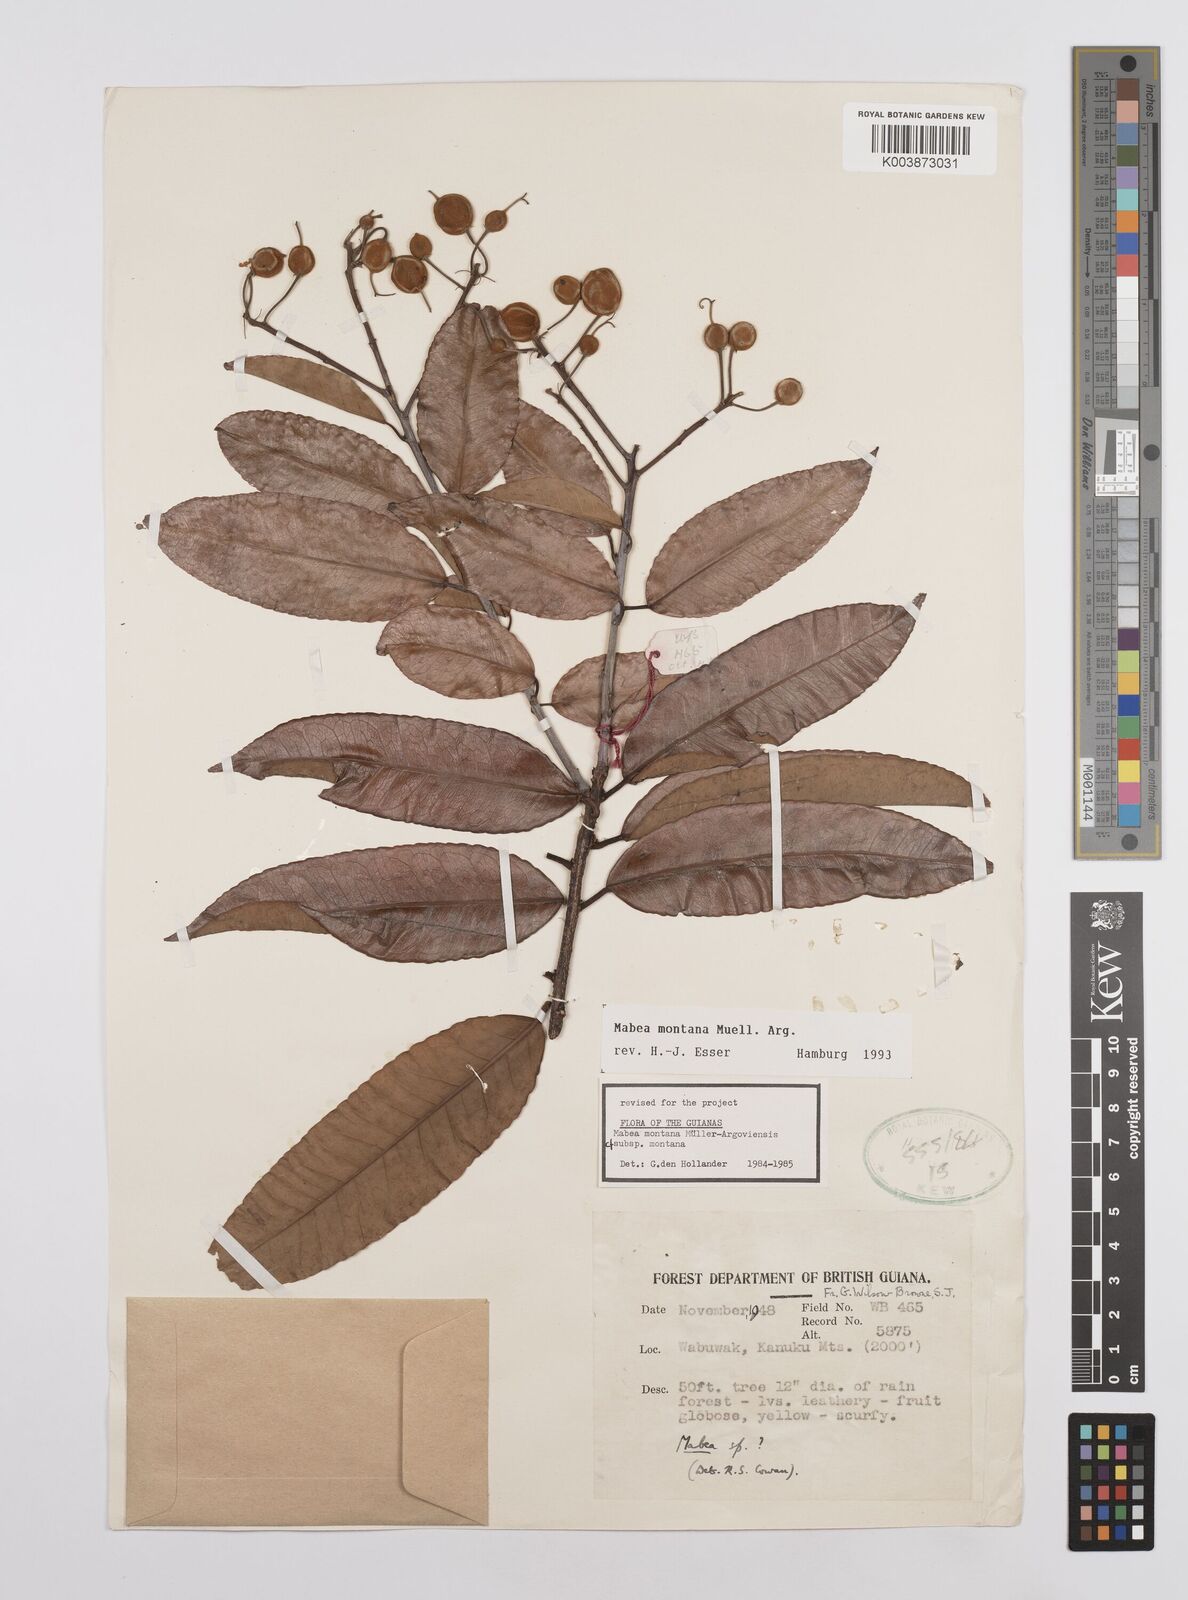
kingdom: Plantae
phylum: Tracheophyta
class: Magnoliopsida
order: Malpighiales
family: Euphorbiaceae
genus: Mabea
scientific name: Mabea montana
